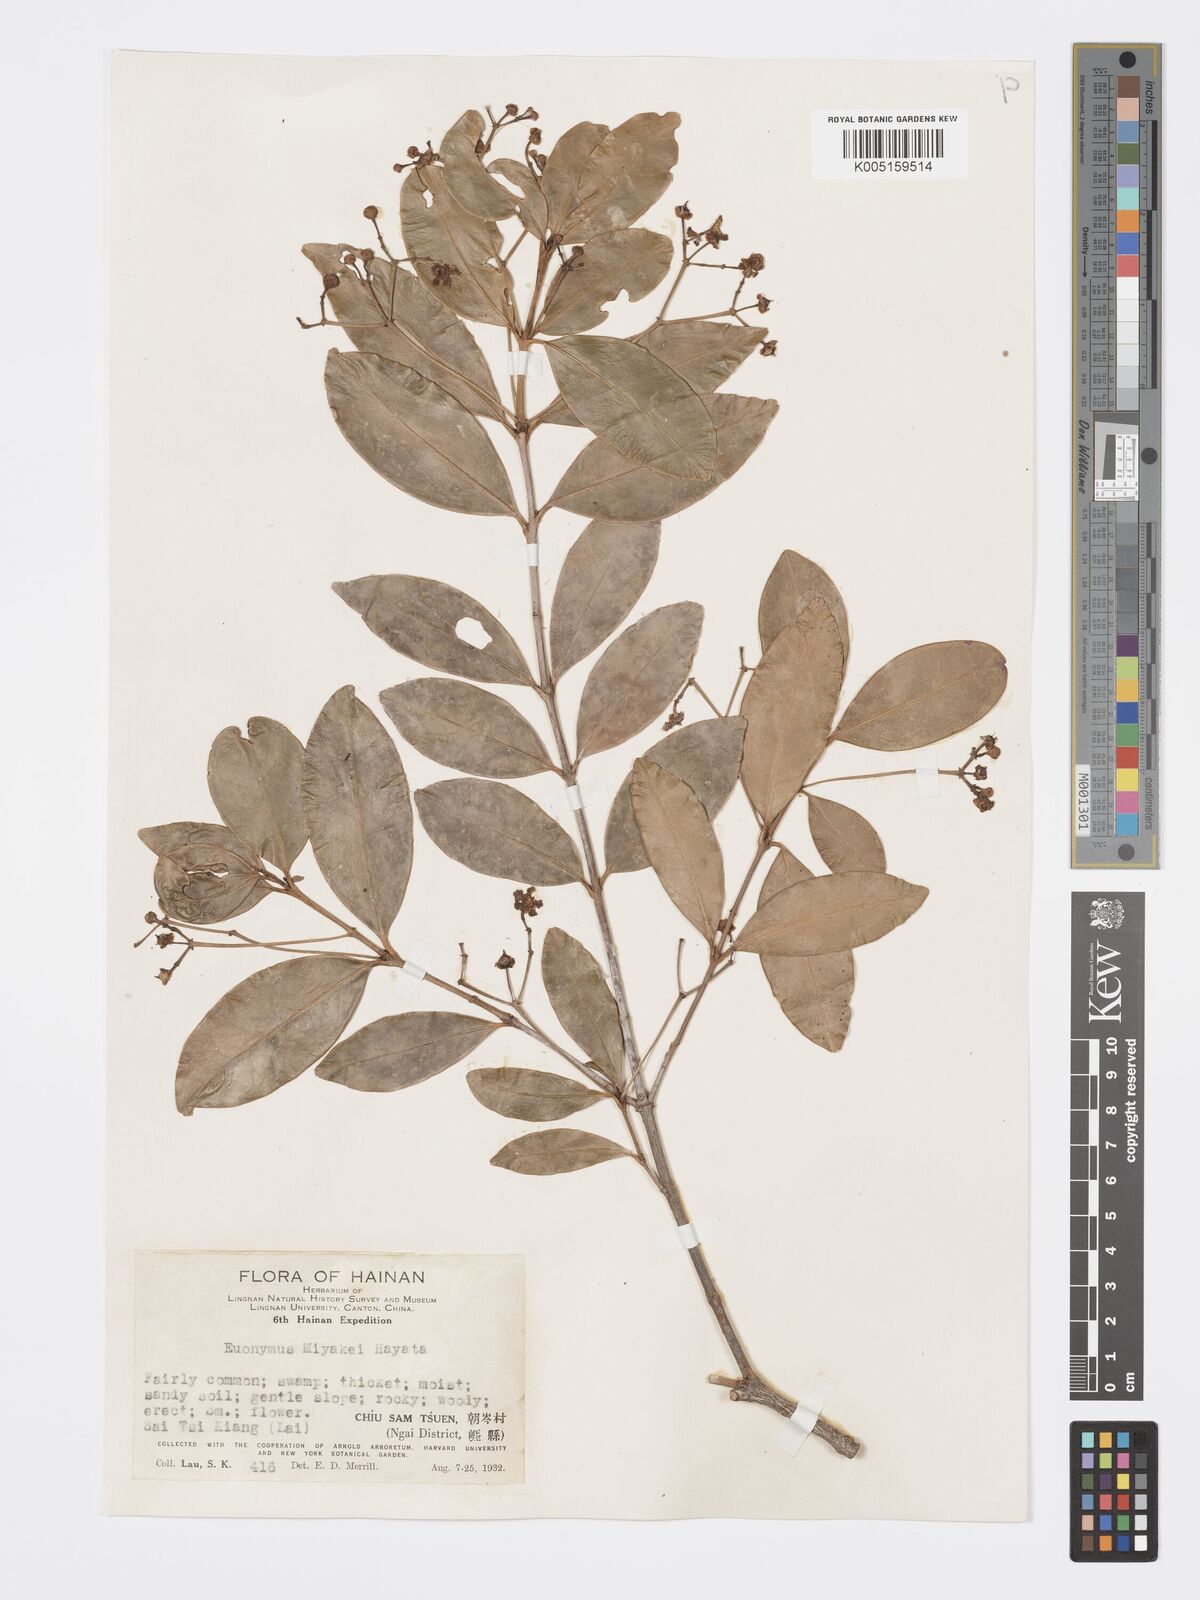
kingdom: Plantae
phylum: Tracheophyta
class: Magnoliopsida
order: Celastrales
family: Celastraceae
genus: Euonymus
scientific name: Euonymus cochinchinensis
